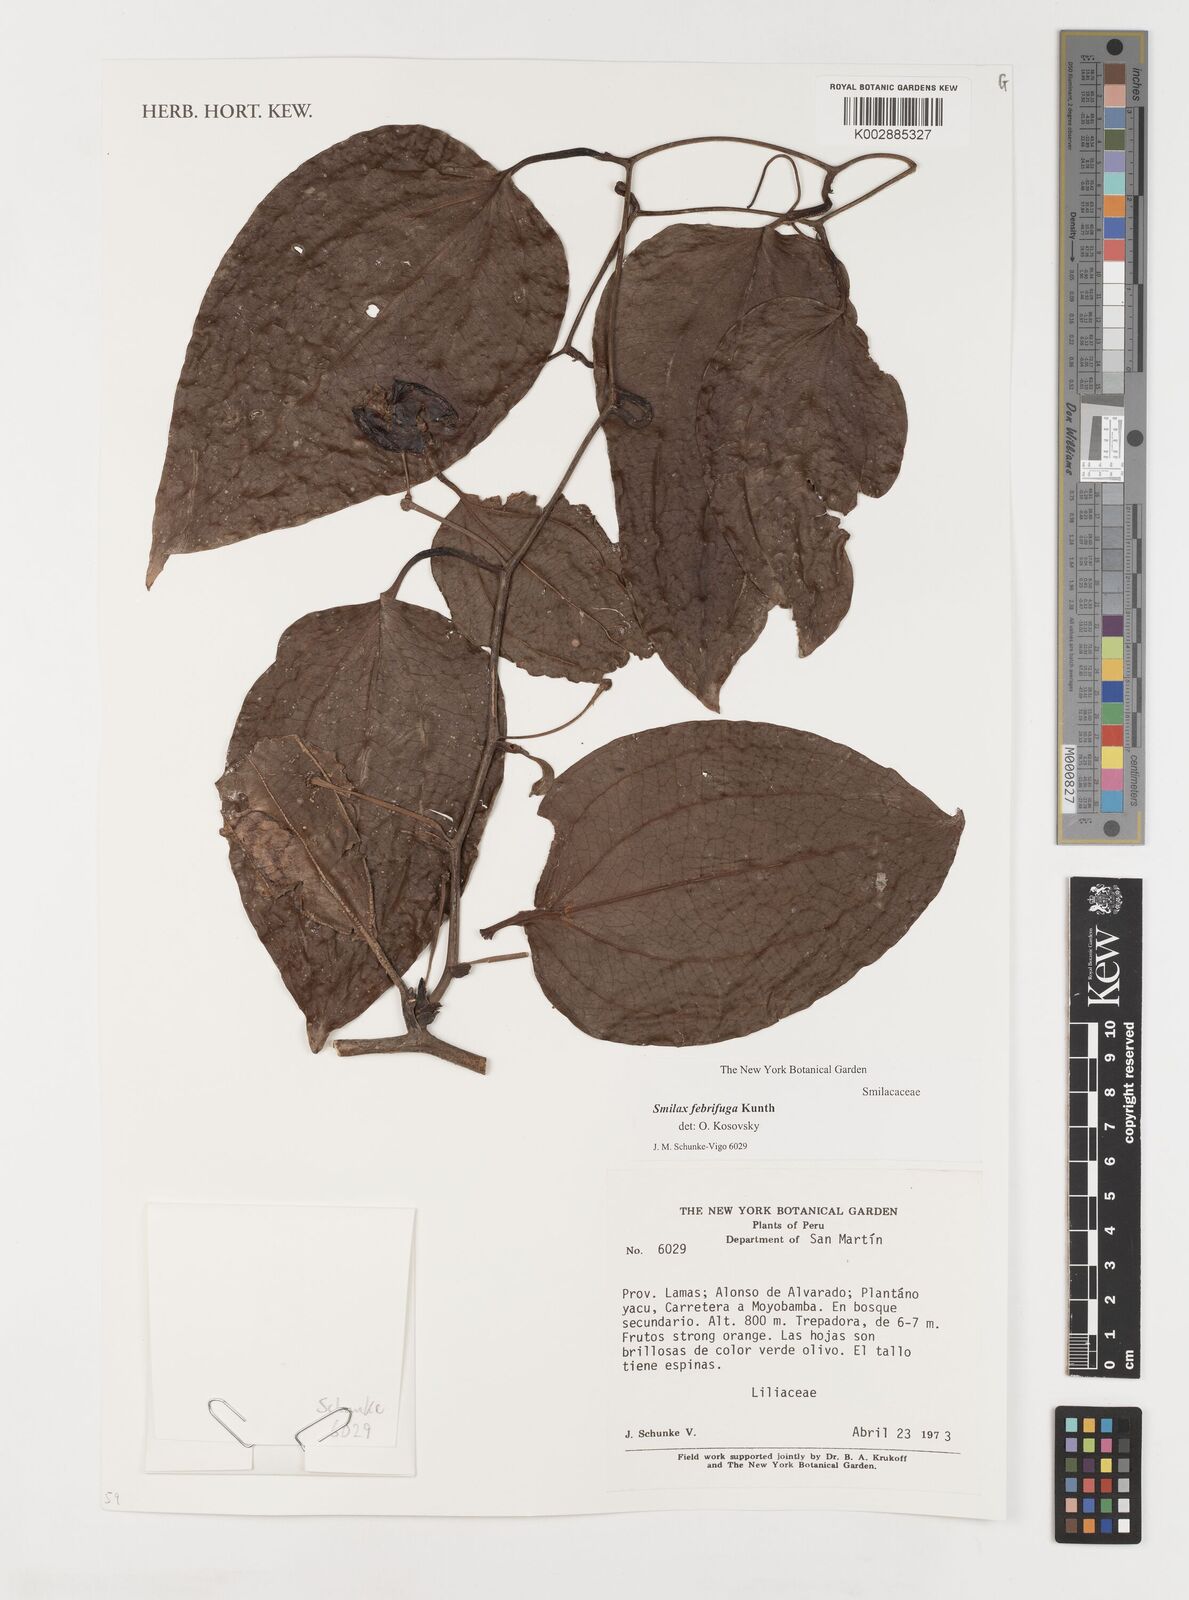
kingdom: Plantae
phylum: Tracheophyta
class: Liliopsida
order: Liliales
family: Smilacaceae
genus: Smilax
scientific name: Smilax purhampuy
